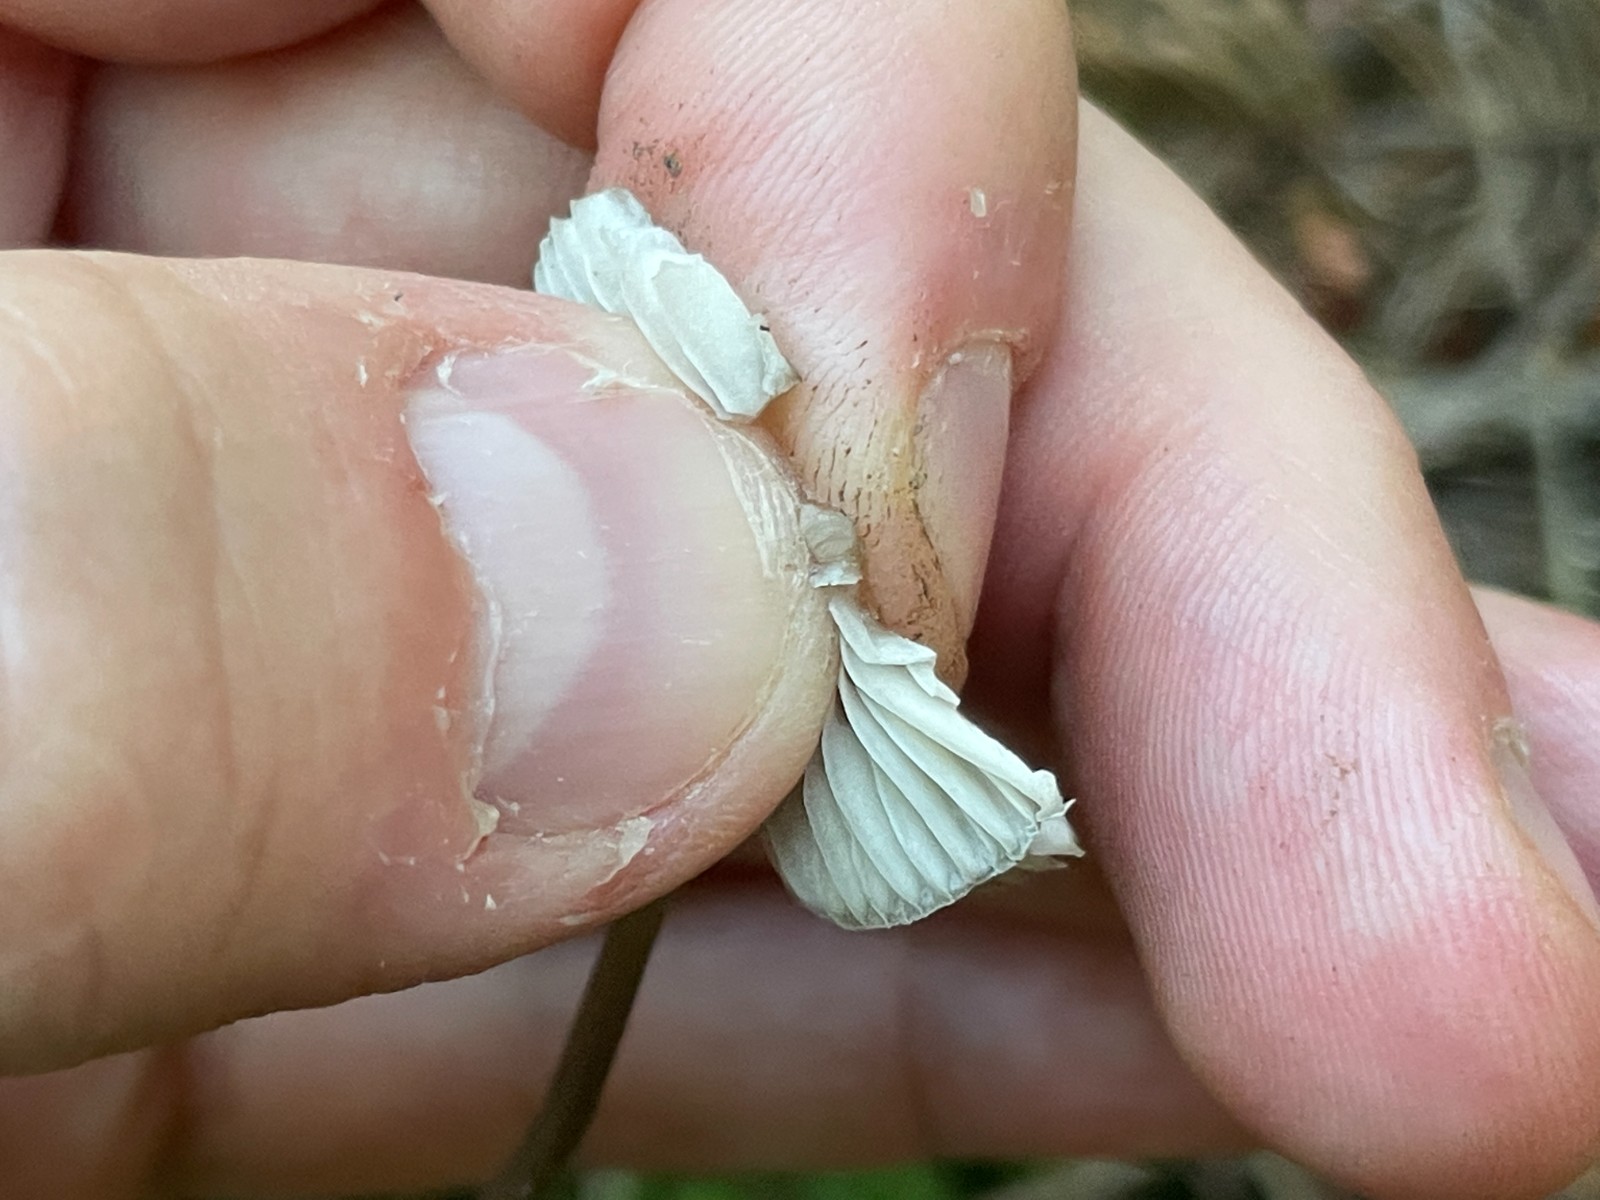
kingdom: Fungi
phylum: Basidiomycota
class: Agaricomycetes
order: Agaricales
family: Mycenaceae
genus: Mycena
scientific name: Mycena
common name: huesvamp
